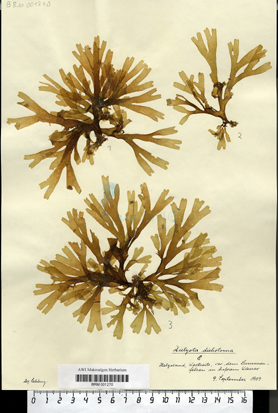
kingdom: Chromista
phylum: Ochrophyta
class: Phaeophyceae
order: Dictyotales
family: Dictyotaceae
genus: Dictyota
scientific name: Dictyota dichotoma
